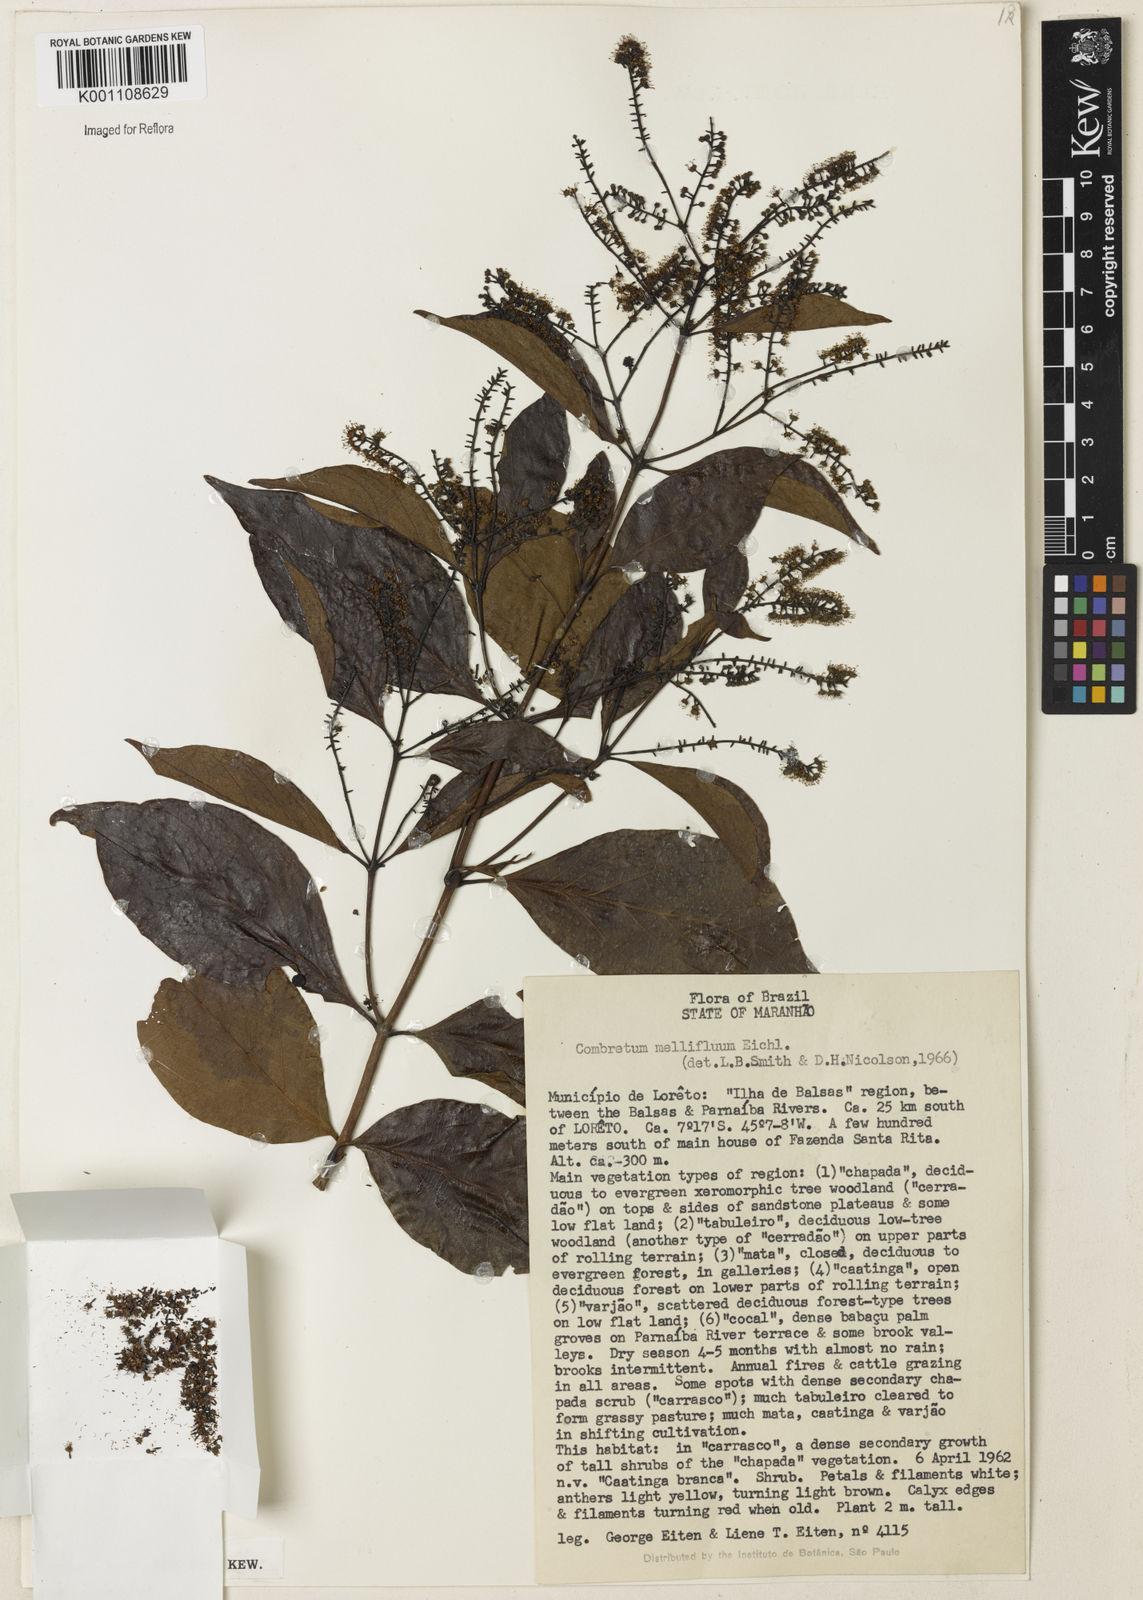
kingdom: Plantae
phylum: Tracheophyta
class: Magnoliopsida
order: Myrtales
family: Combretaceae
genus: Combretum
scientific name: Combretum mellifluum
